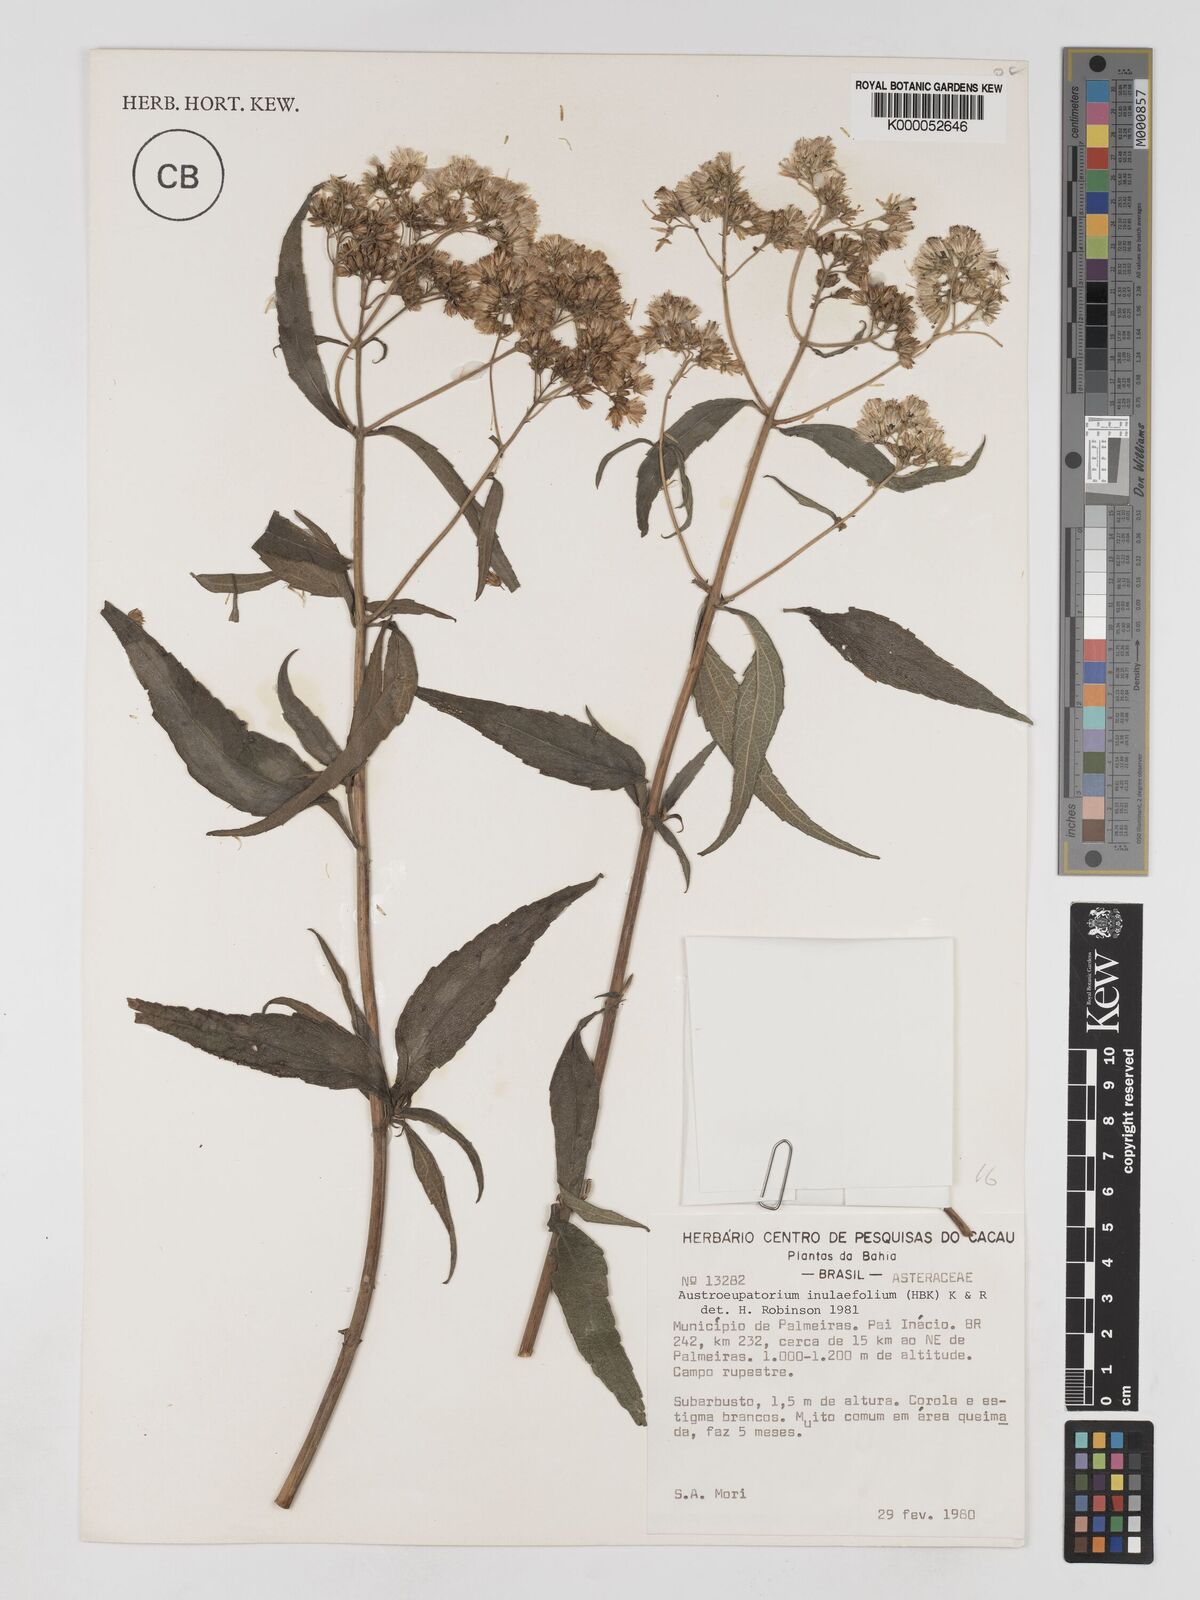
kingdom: Plantae
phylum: Tracheophyta
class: Magnoliopsida
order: Asterales
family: Asteraceae
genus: Austroeupatorium
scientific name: Austroeupatorium inulifolium
